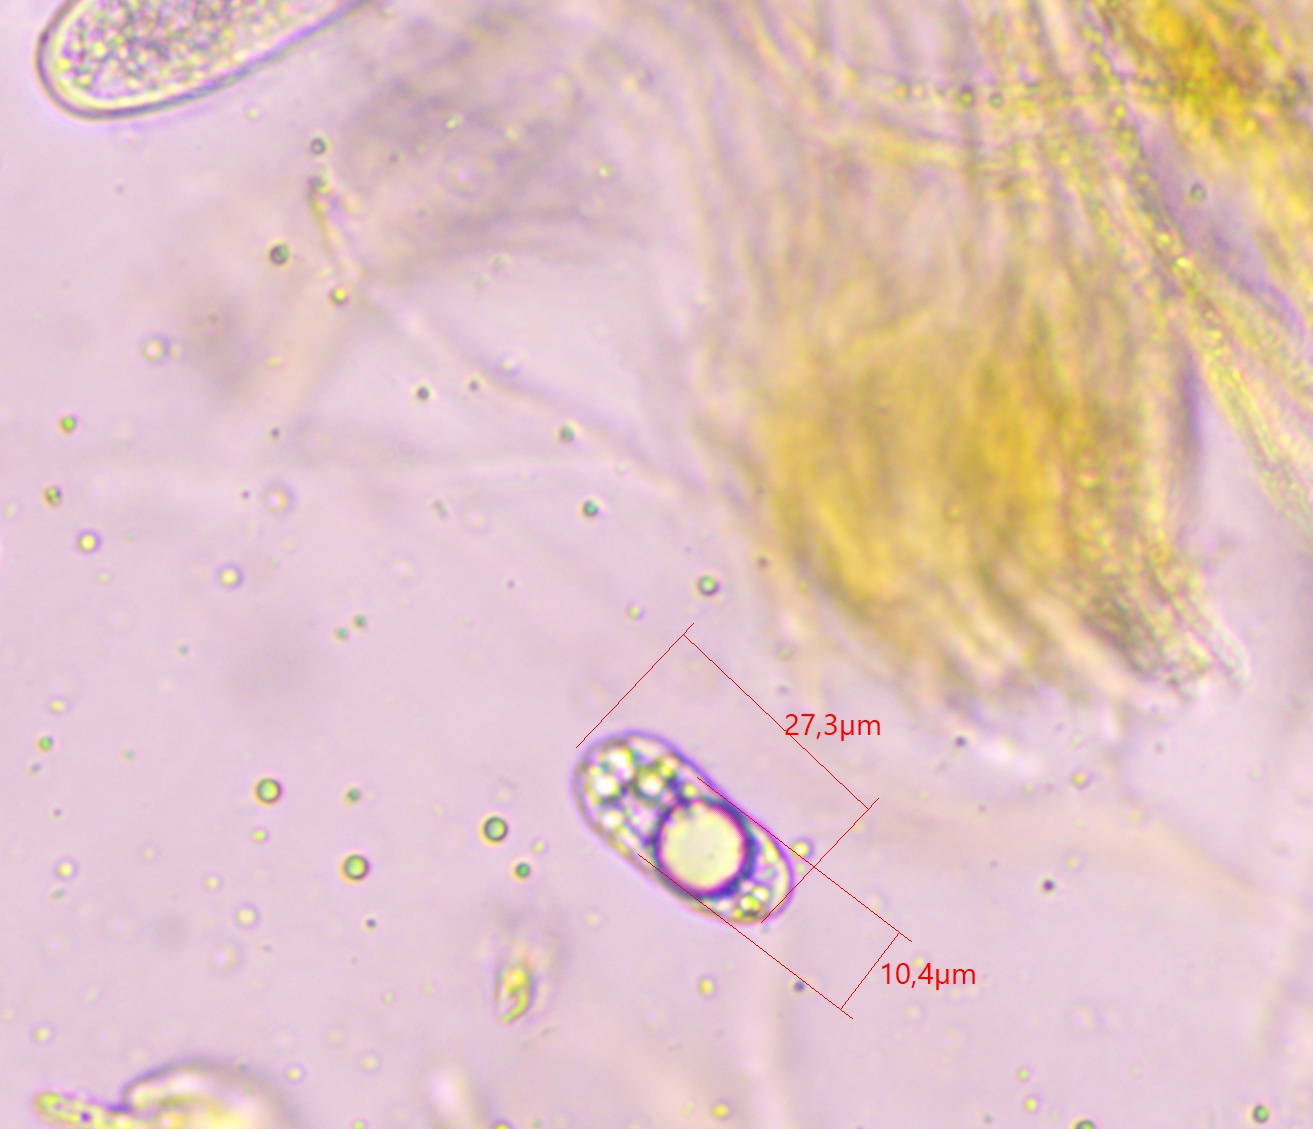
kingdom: Fungi
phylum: Ascomycota
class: Leotiomycetes
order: Helotiales
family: Dermateaceae
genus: Pezicula
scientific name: Pezicula ocellata
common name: tandet klyngeskive
